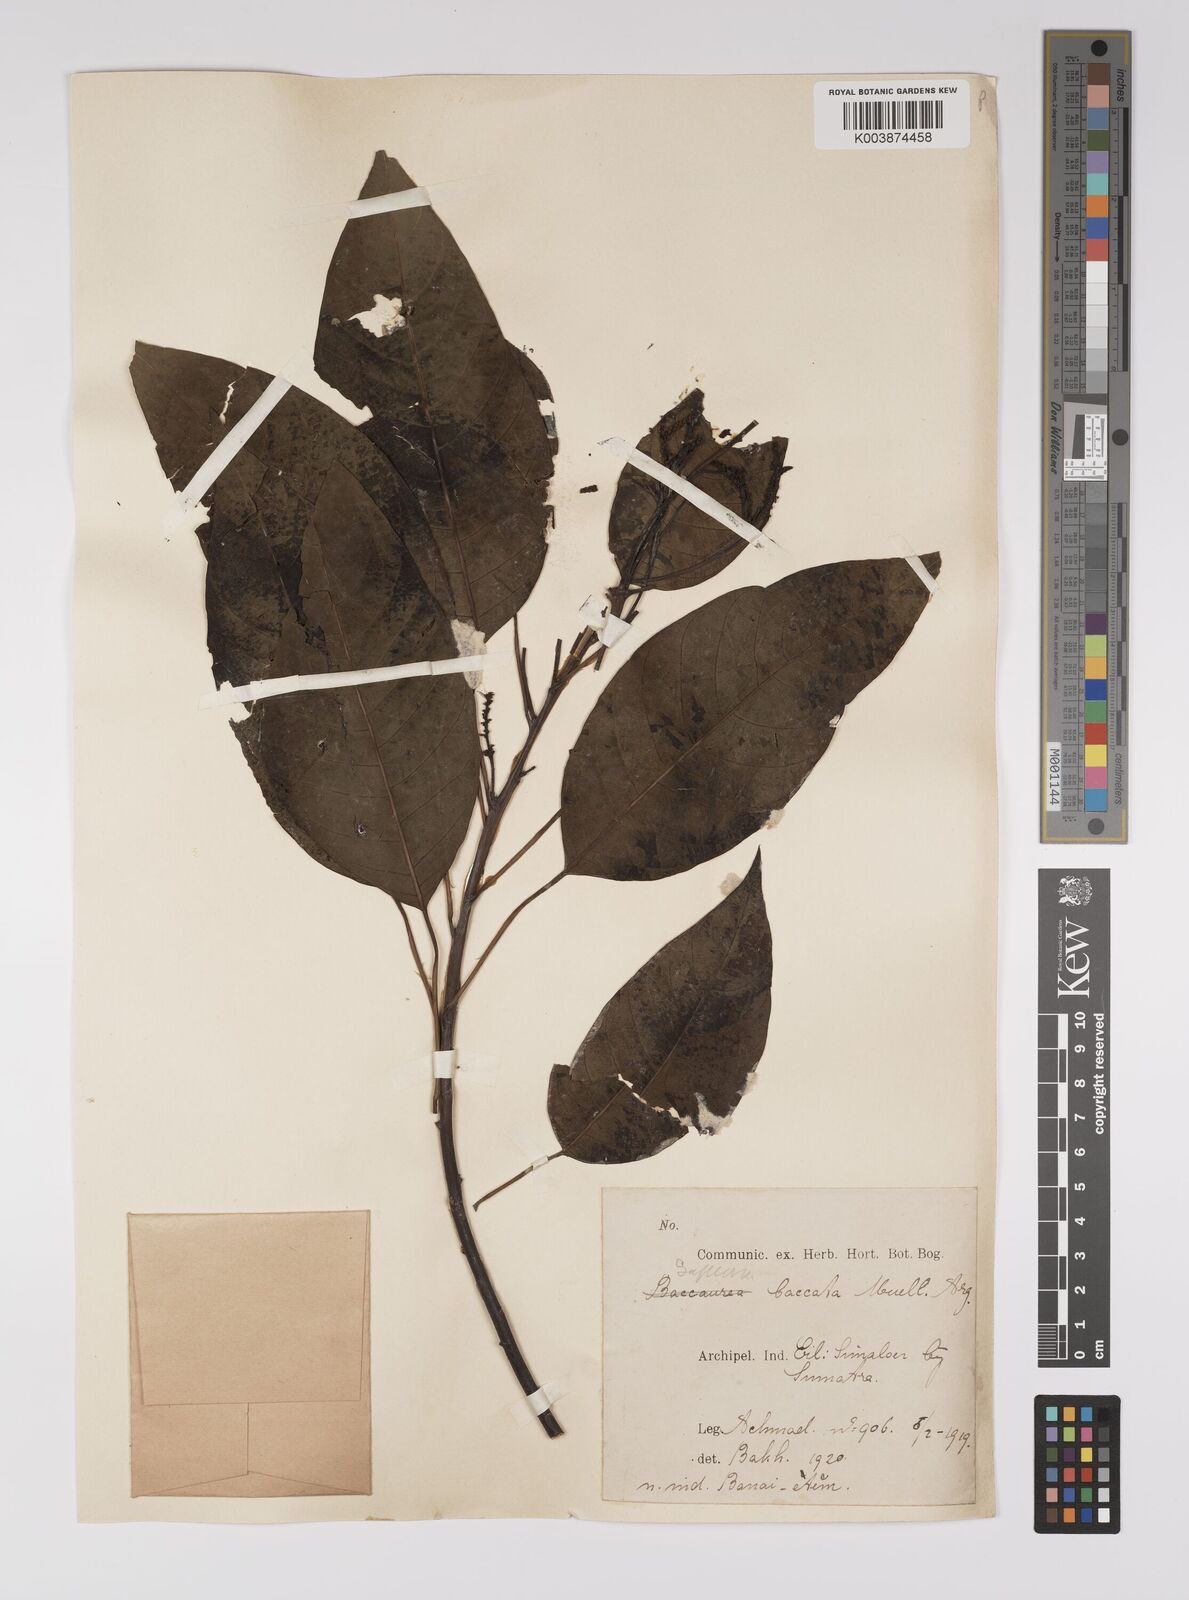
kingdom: Plantae
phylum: Tracheophyta
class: Magnoliopsida
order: Malpighiales
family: Euphorbiaceae
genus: Balakata
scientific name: Balakata baccata
